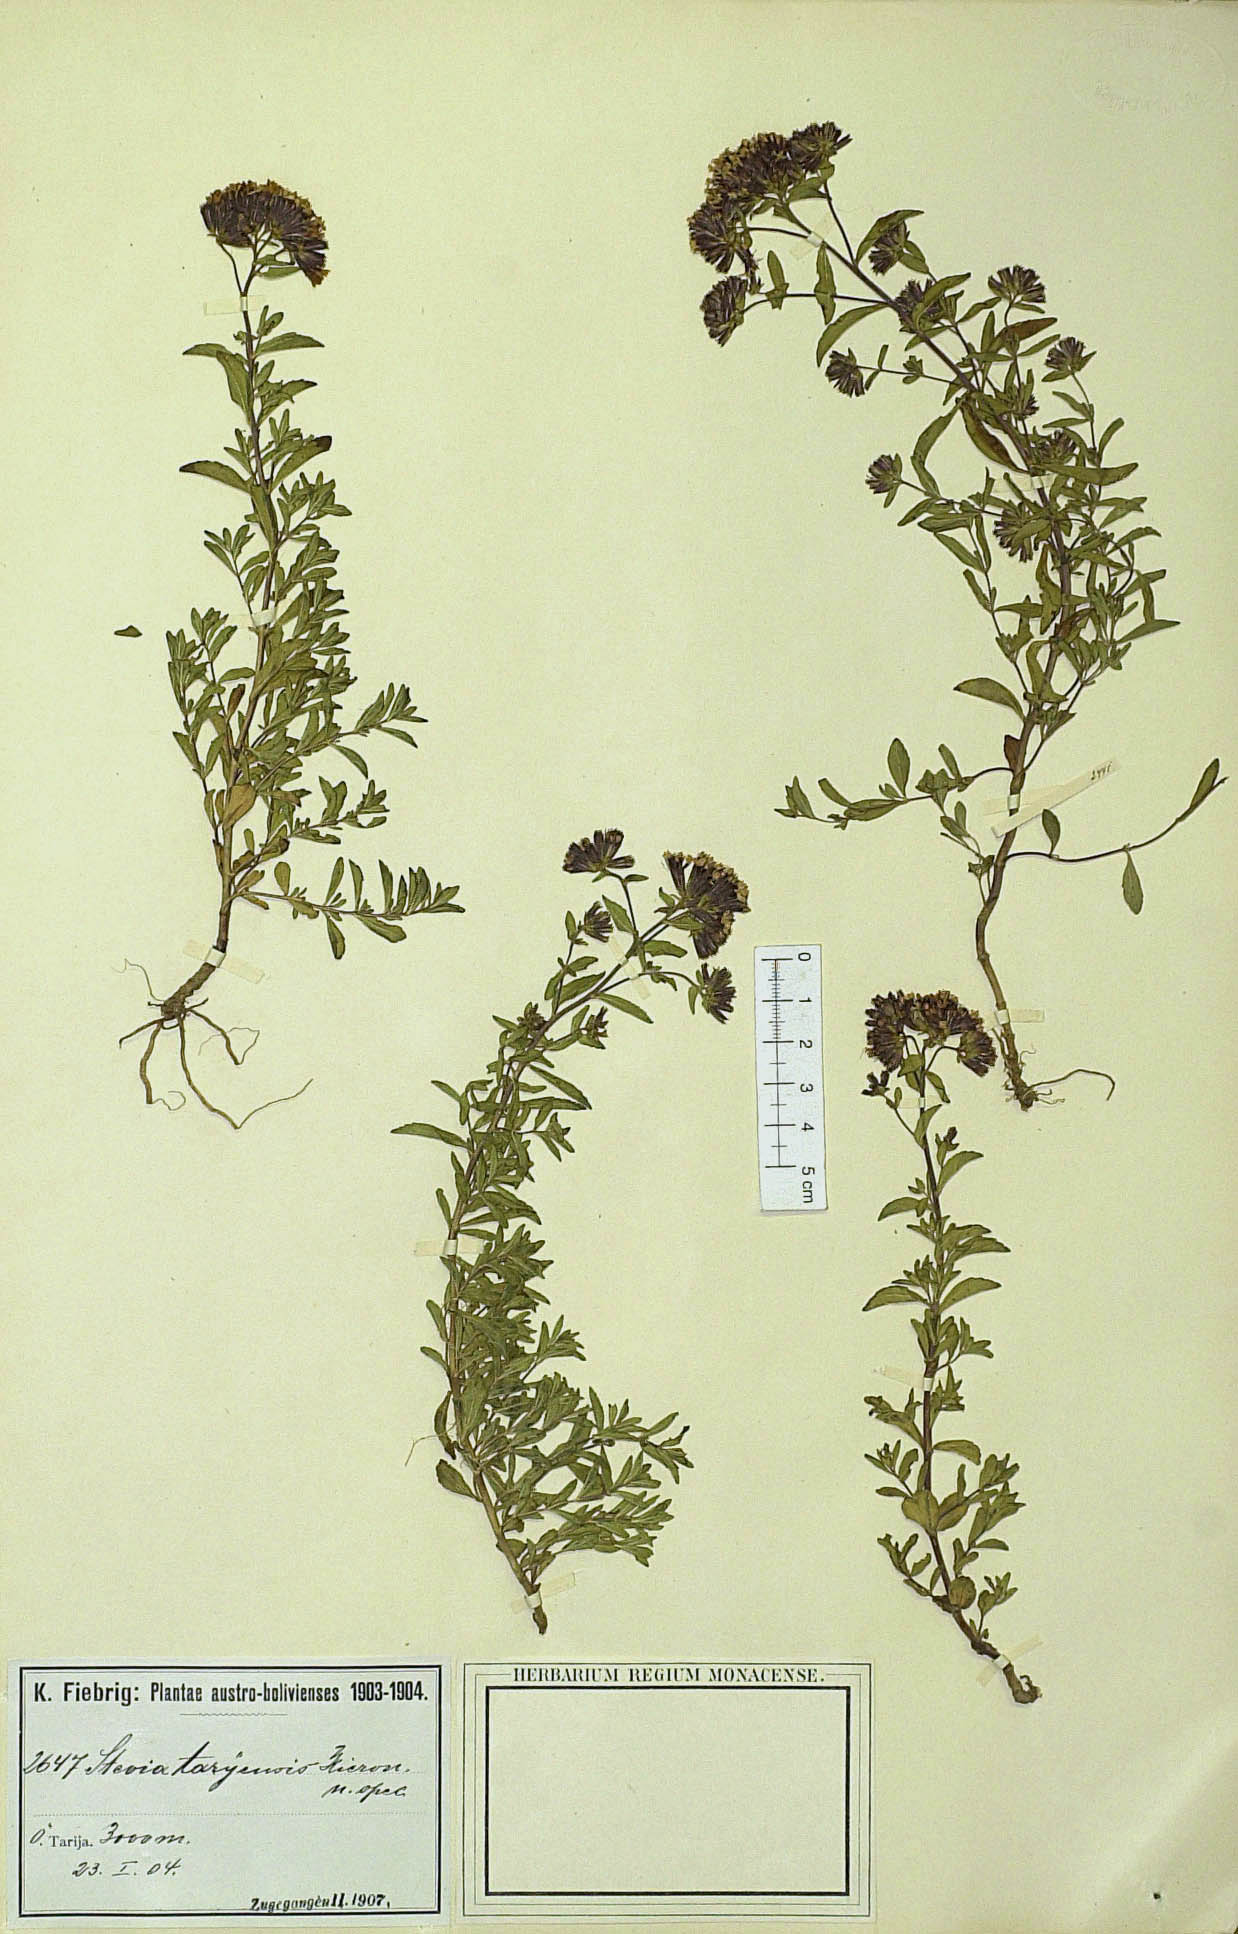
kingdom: Plantae
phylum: Tracheophyta
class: Magnoliopsida
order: Asterales
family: Asteraceae
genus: Stevia
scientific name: Stevia tarijensis
